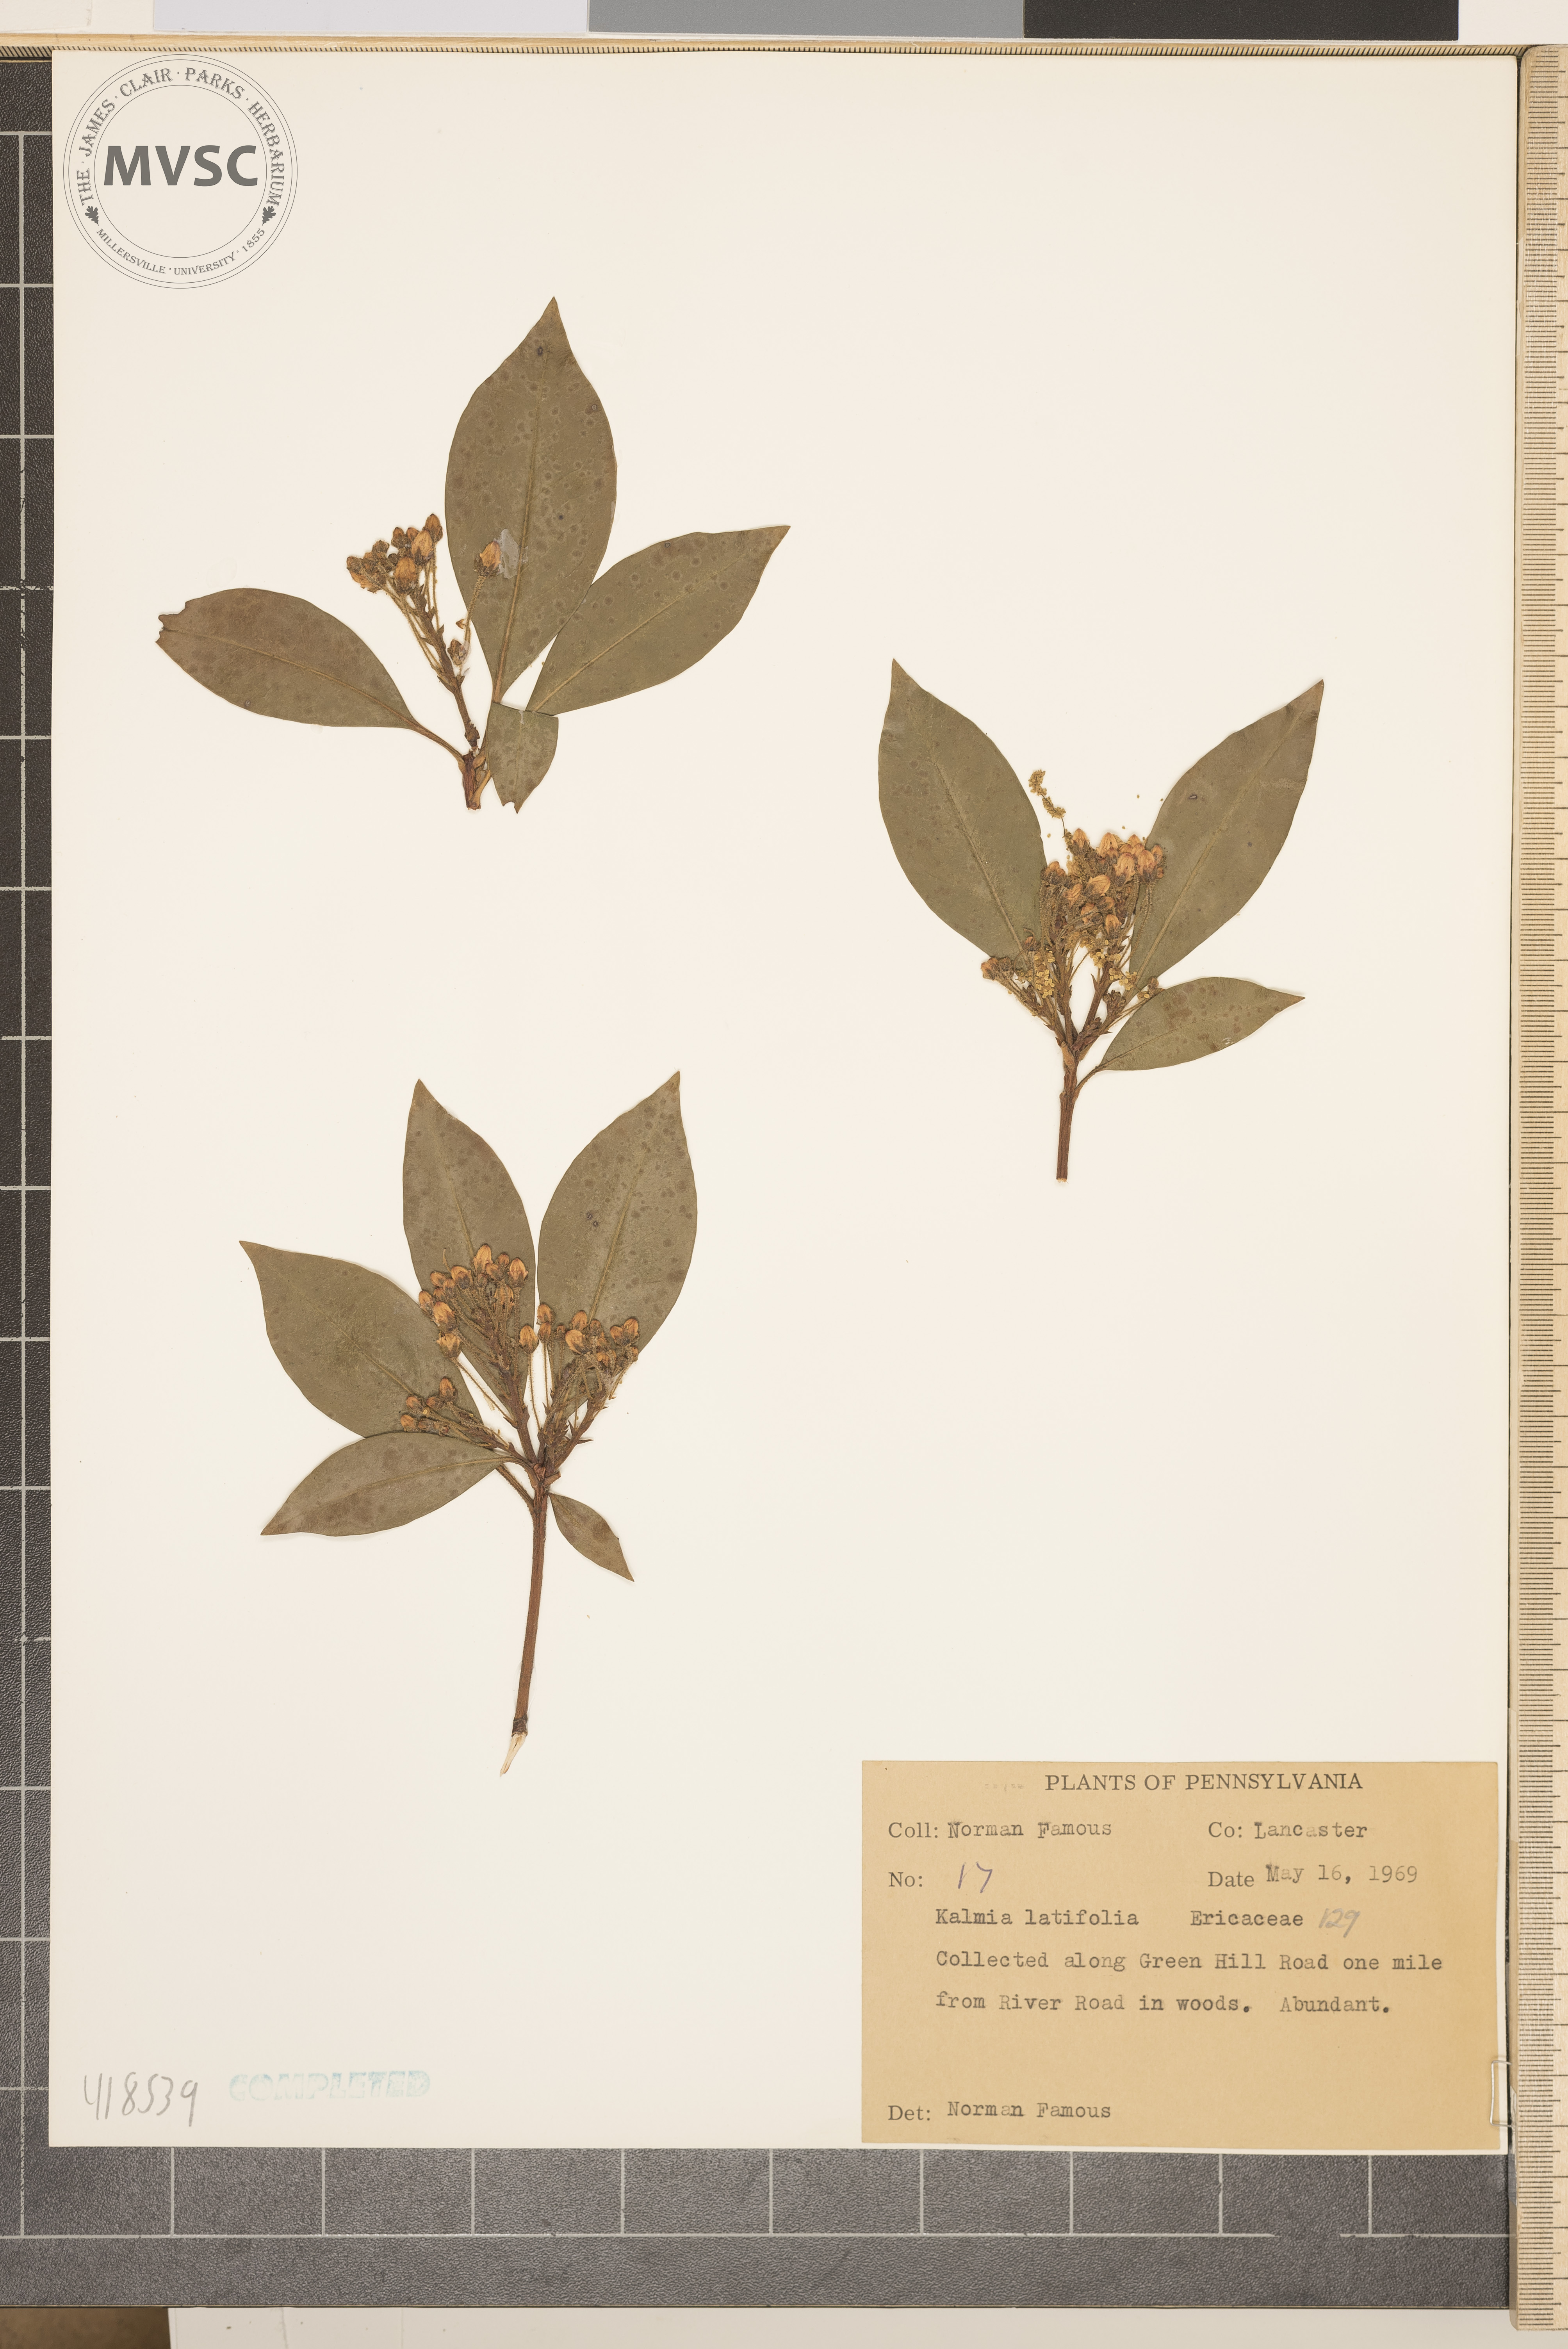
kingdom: Plantae
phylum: Tracheophyta
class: Magnoliopsida
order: Ericales
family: Ericaceae
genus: Kalmia
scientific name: Kalmia latifolia
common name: Mountain-laurel
